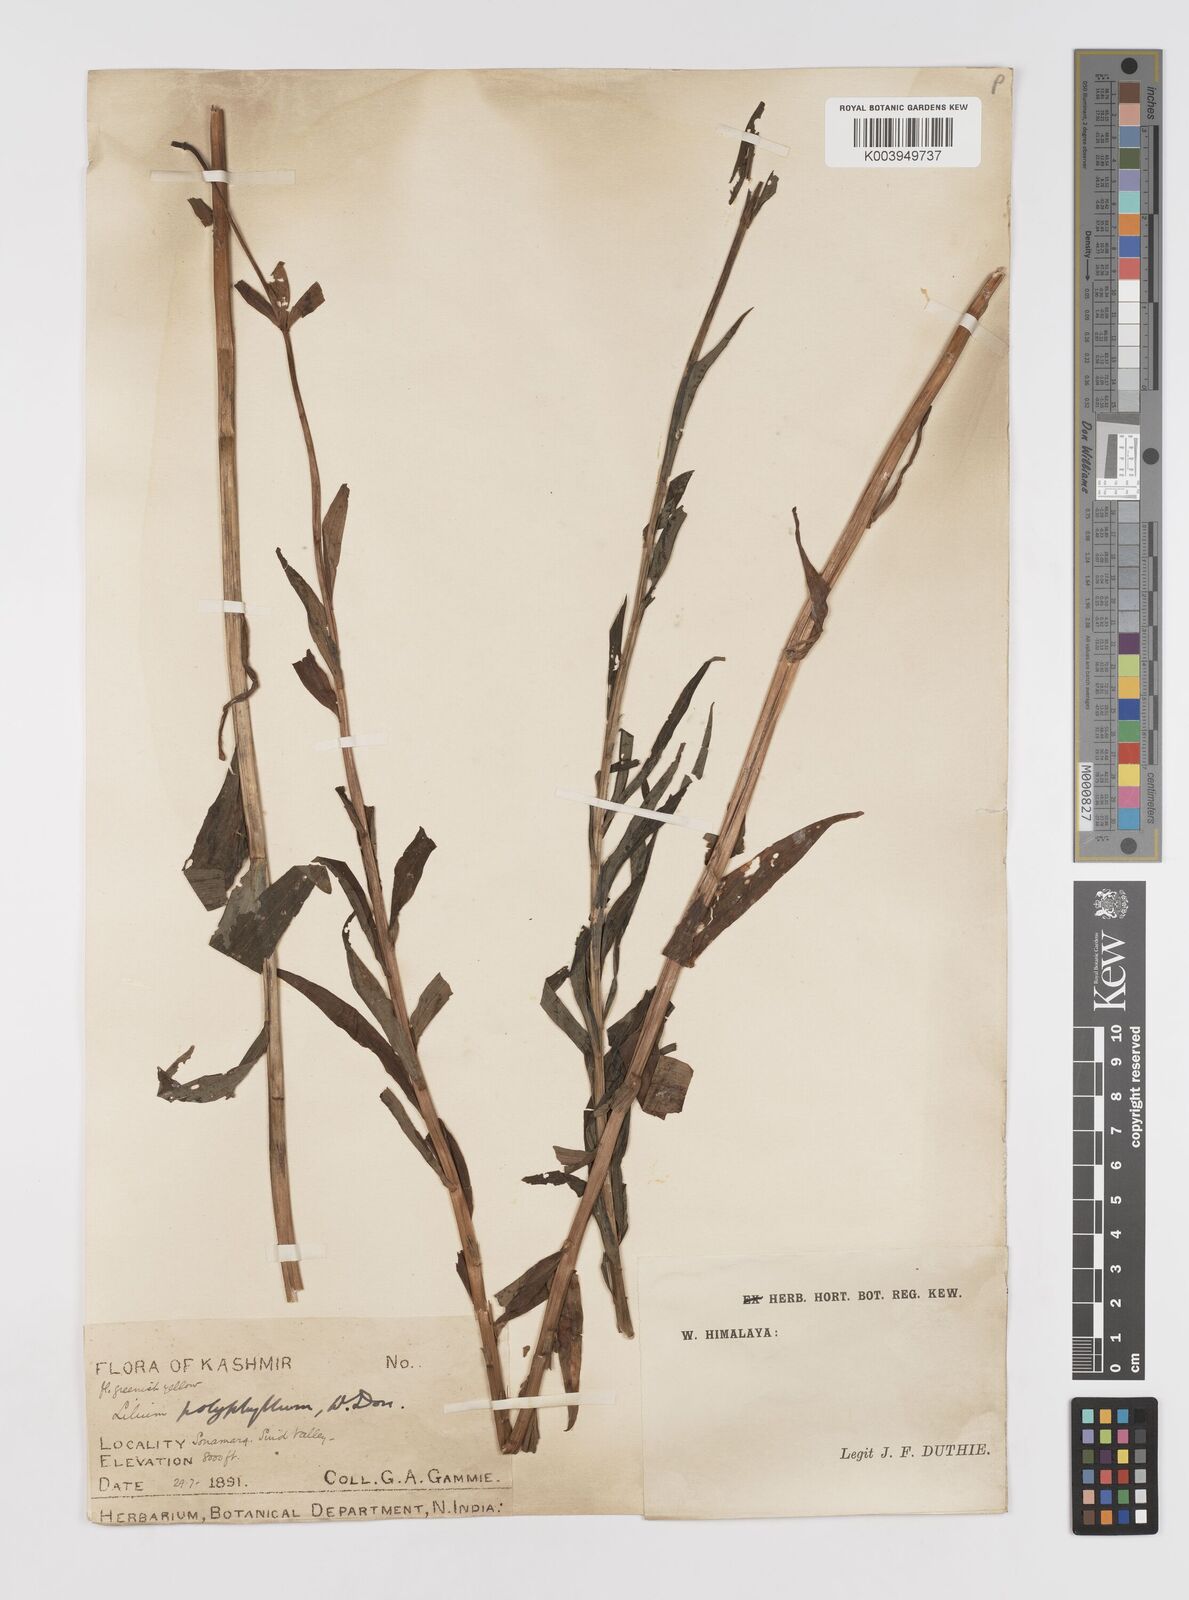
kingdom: Plantae
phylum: Tracheophyta
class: Liliopsida
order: Liliales
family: Liliaceae
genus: Lilium
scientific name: Lilium polyphyllum
